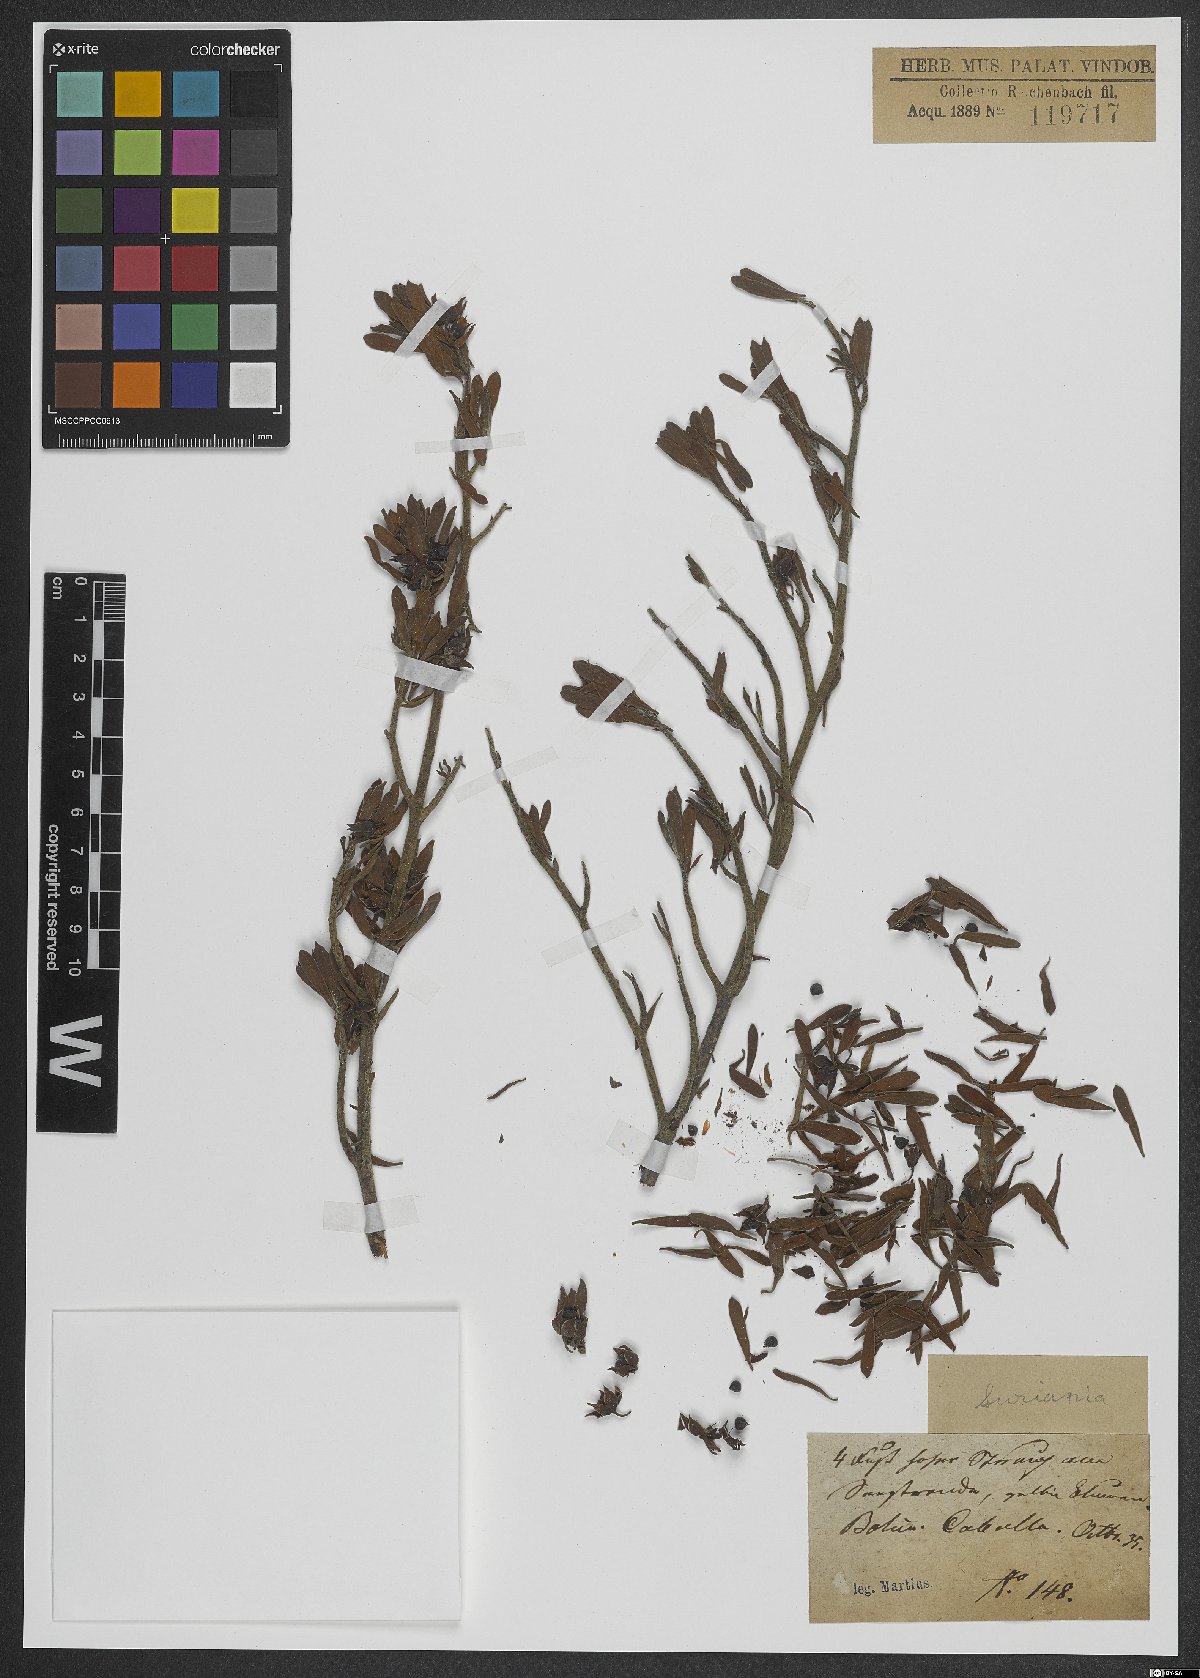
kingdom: Plantae
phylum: Tracheophyta
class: Magnoliopsida
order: Fabales
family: Surianaceae
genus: Suriana
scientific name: Suriana maritima
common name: Bay-cedar
